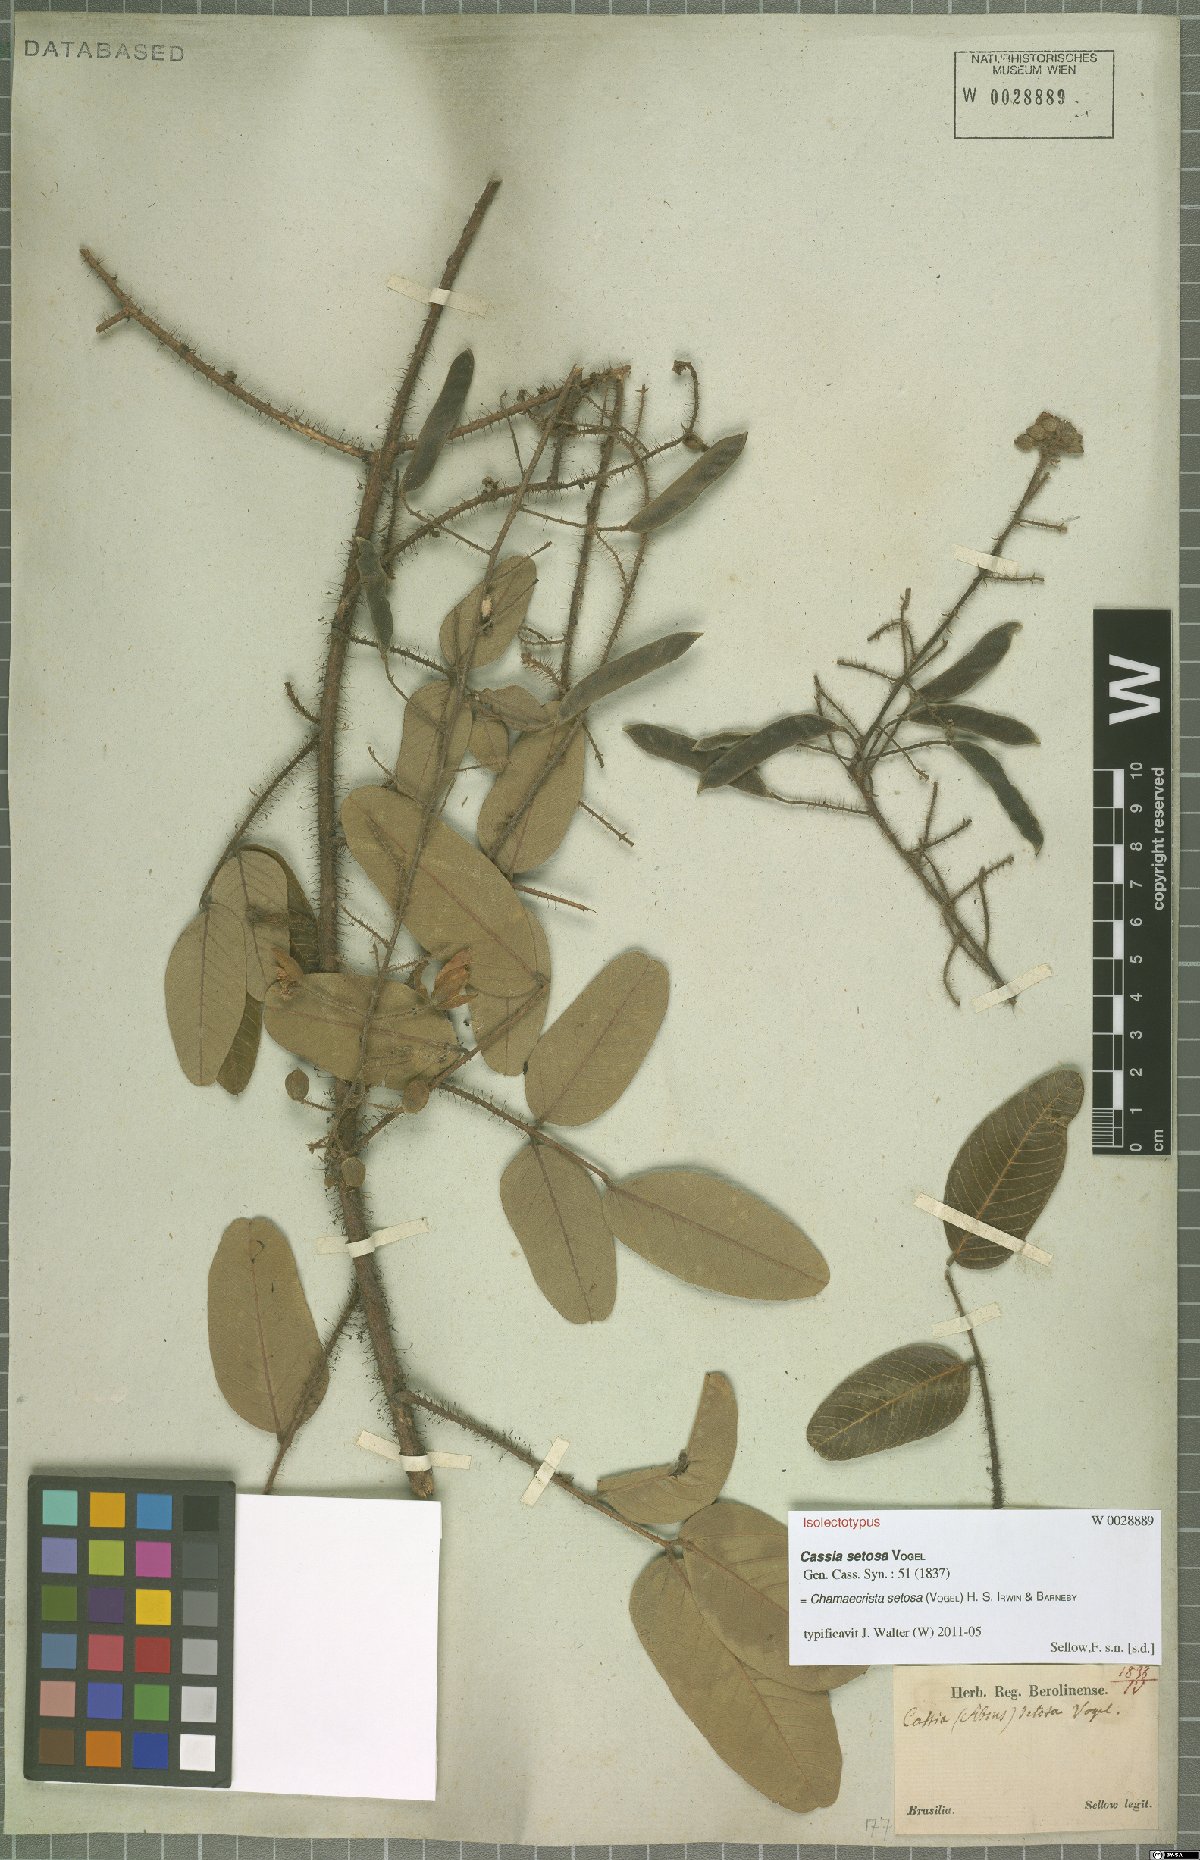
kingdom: Plantae
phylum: Tracheophyta
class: Magnoliopsida
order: Fabales
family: Fabaceae
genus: Chamaecrista
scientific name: Chamaecrista setosa
